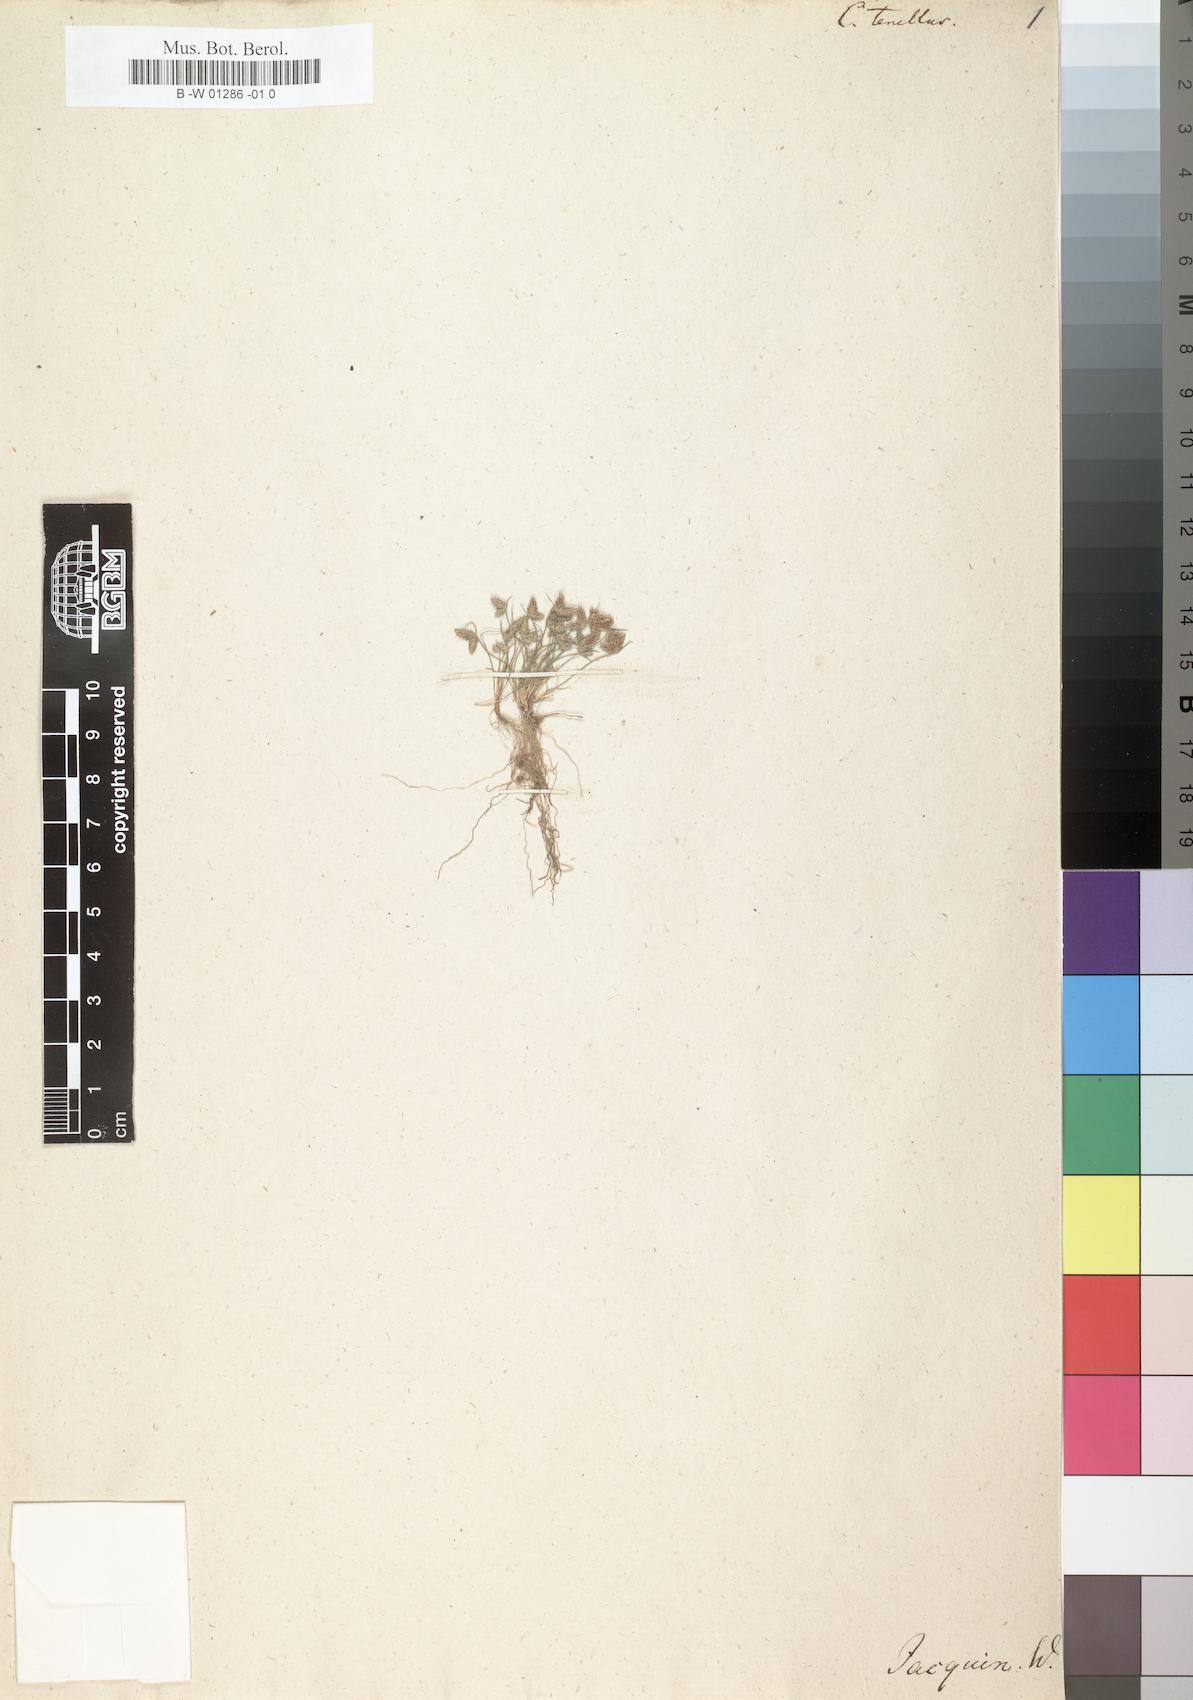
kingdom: Plantae
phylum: Tracheophyta
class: Liliopsida
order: Poales
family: Cyperaceae
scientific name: Cyperaceae
